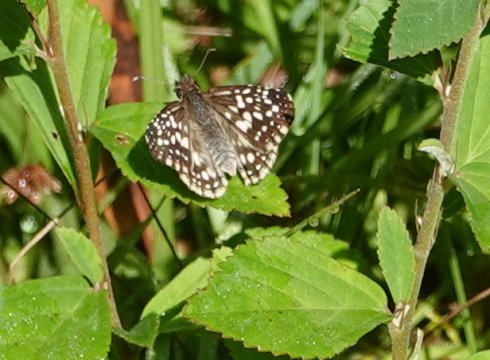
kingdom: Animalia
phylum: Arthropoda
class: Insecta
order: Lepidoptera
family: Hesperiidae
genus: Pyrgus
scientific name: Pyrgus oileus
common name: Tropical Checkered-Skipper
